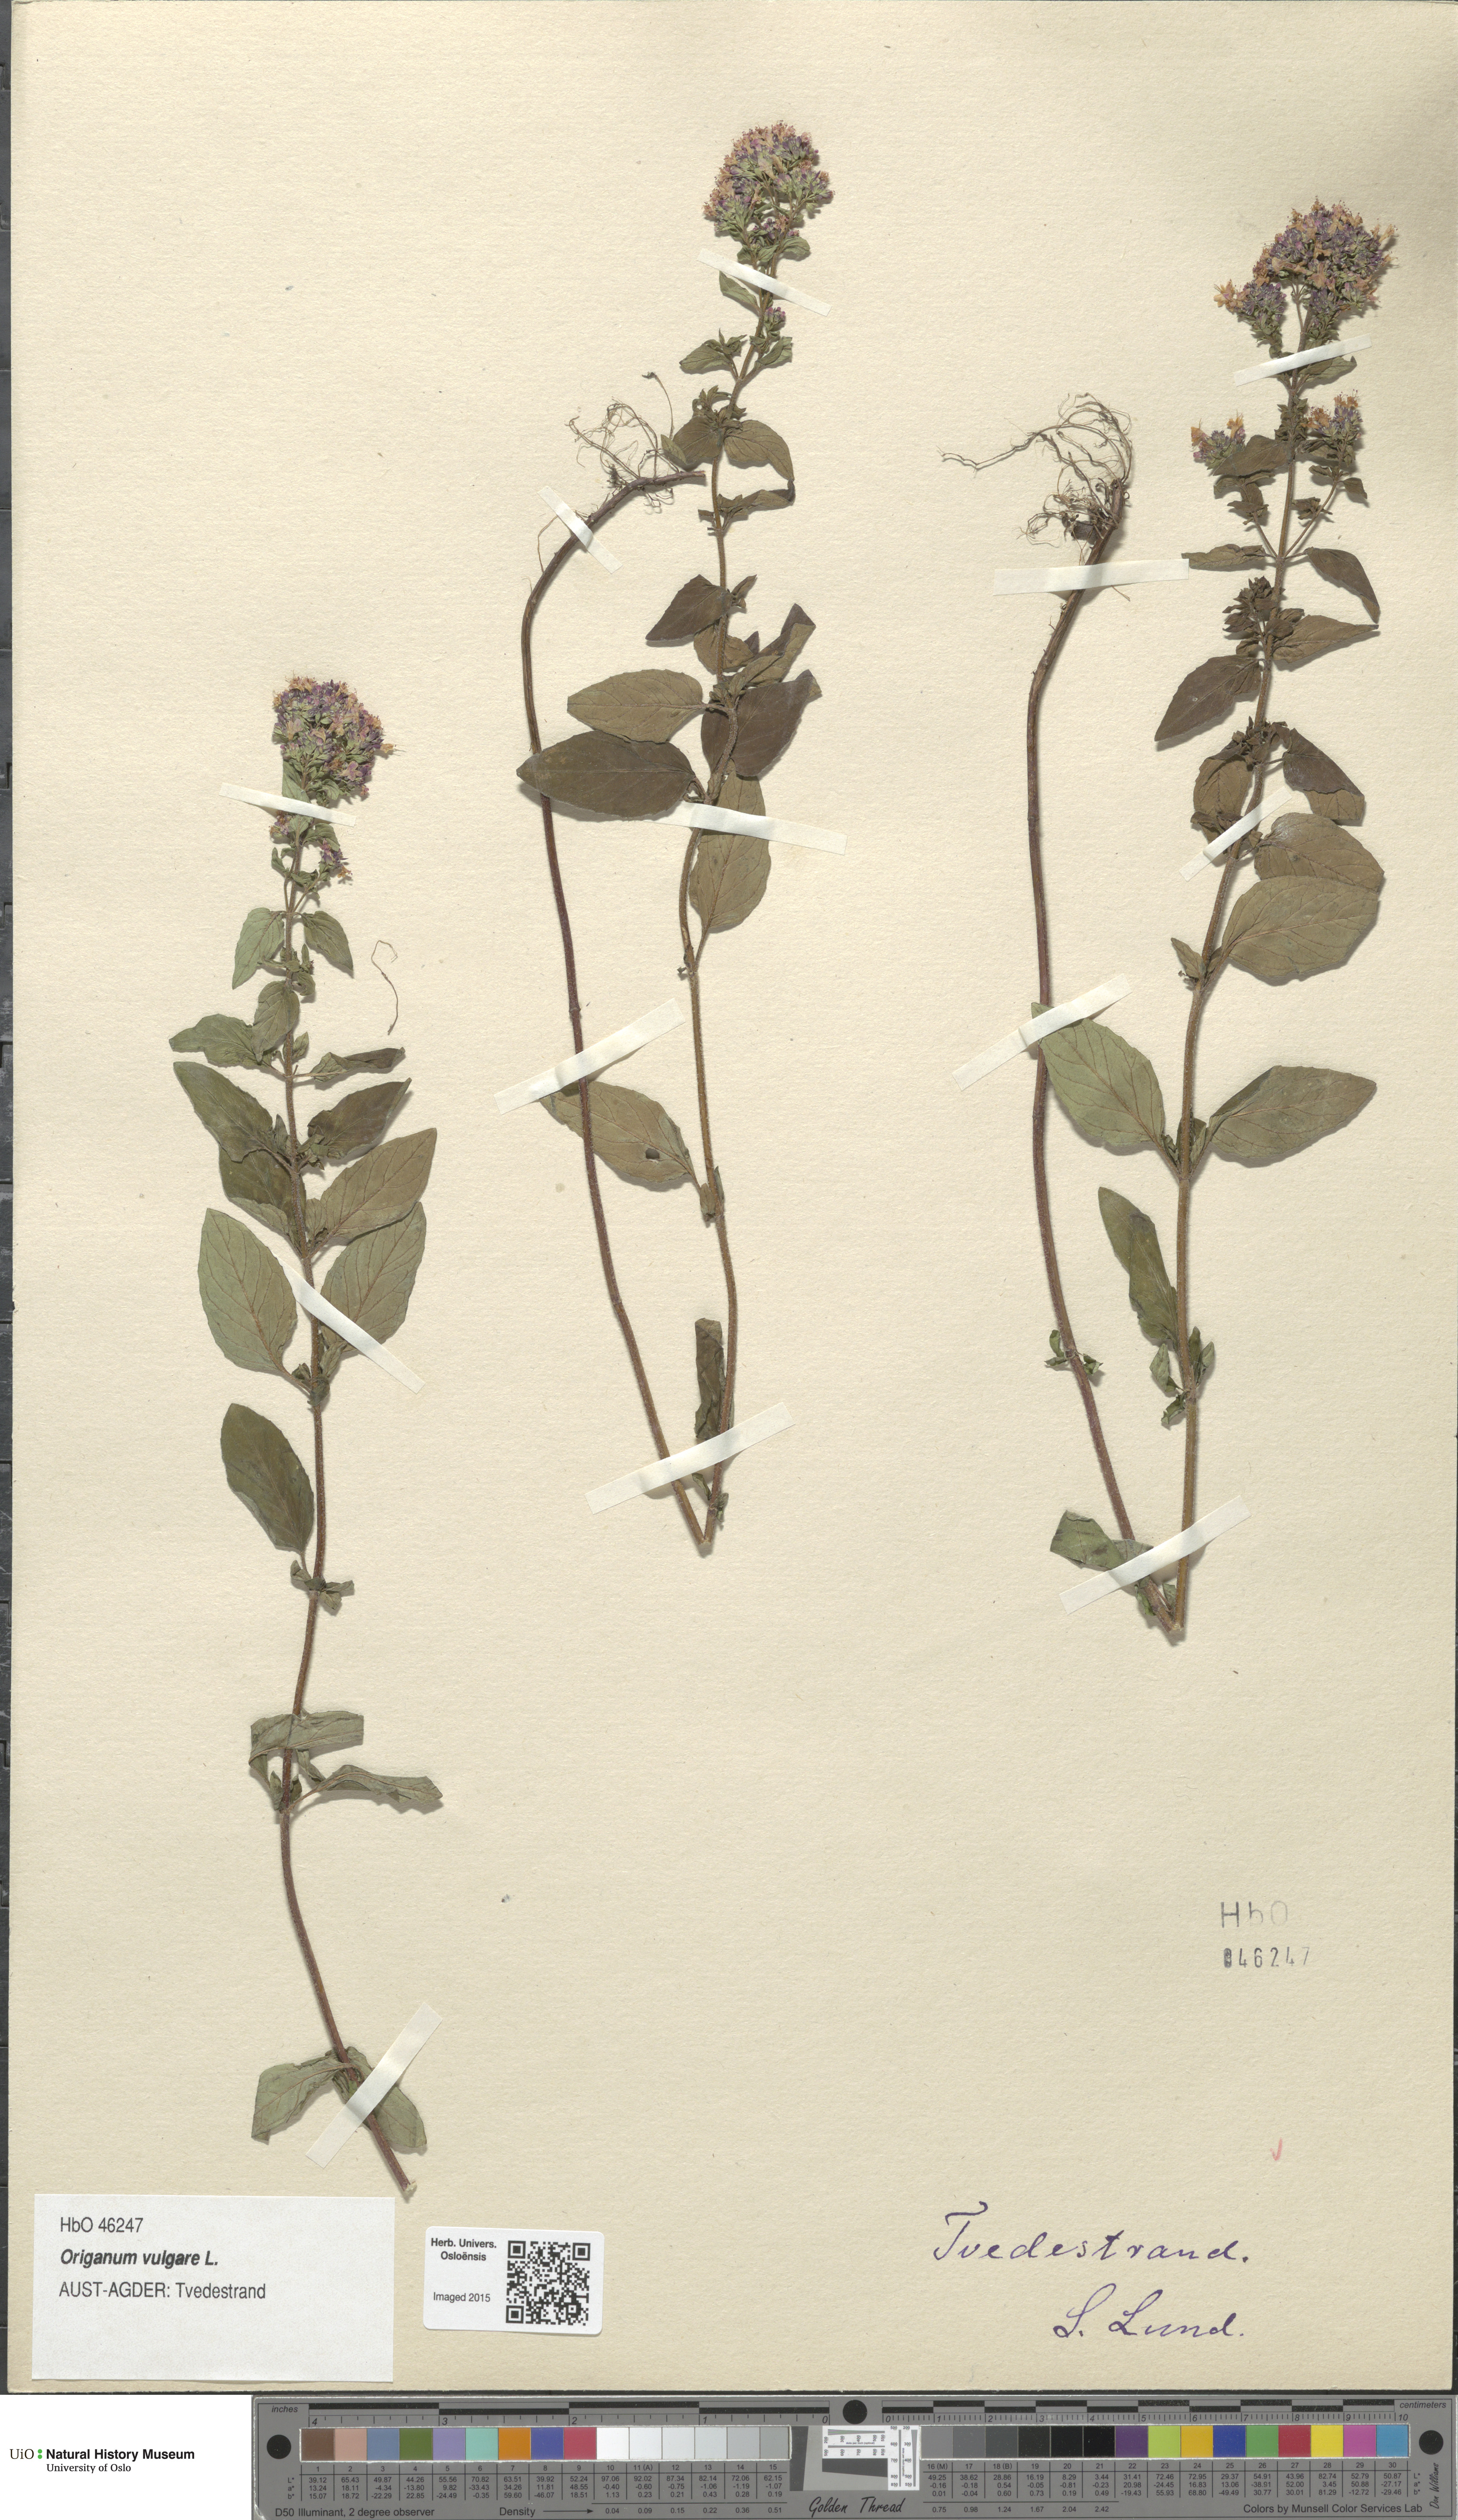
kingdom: Plantae
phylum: Tracheophyta
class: Magnoliopsida
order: Lamiales
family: Lamiaceae
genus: Origanum
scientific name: Origanum vulgare
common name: Wild marjoram
